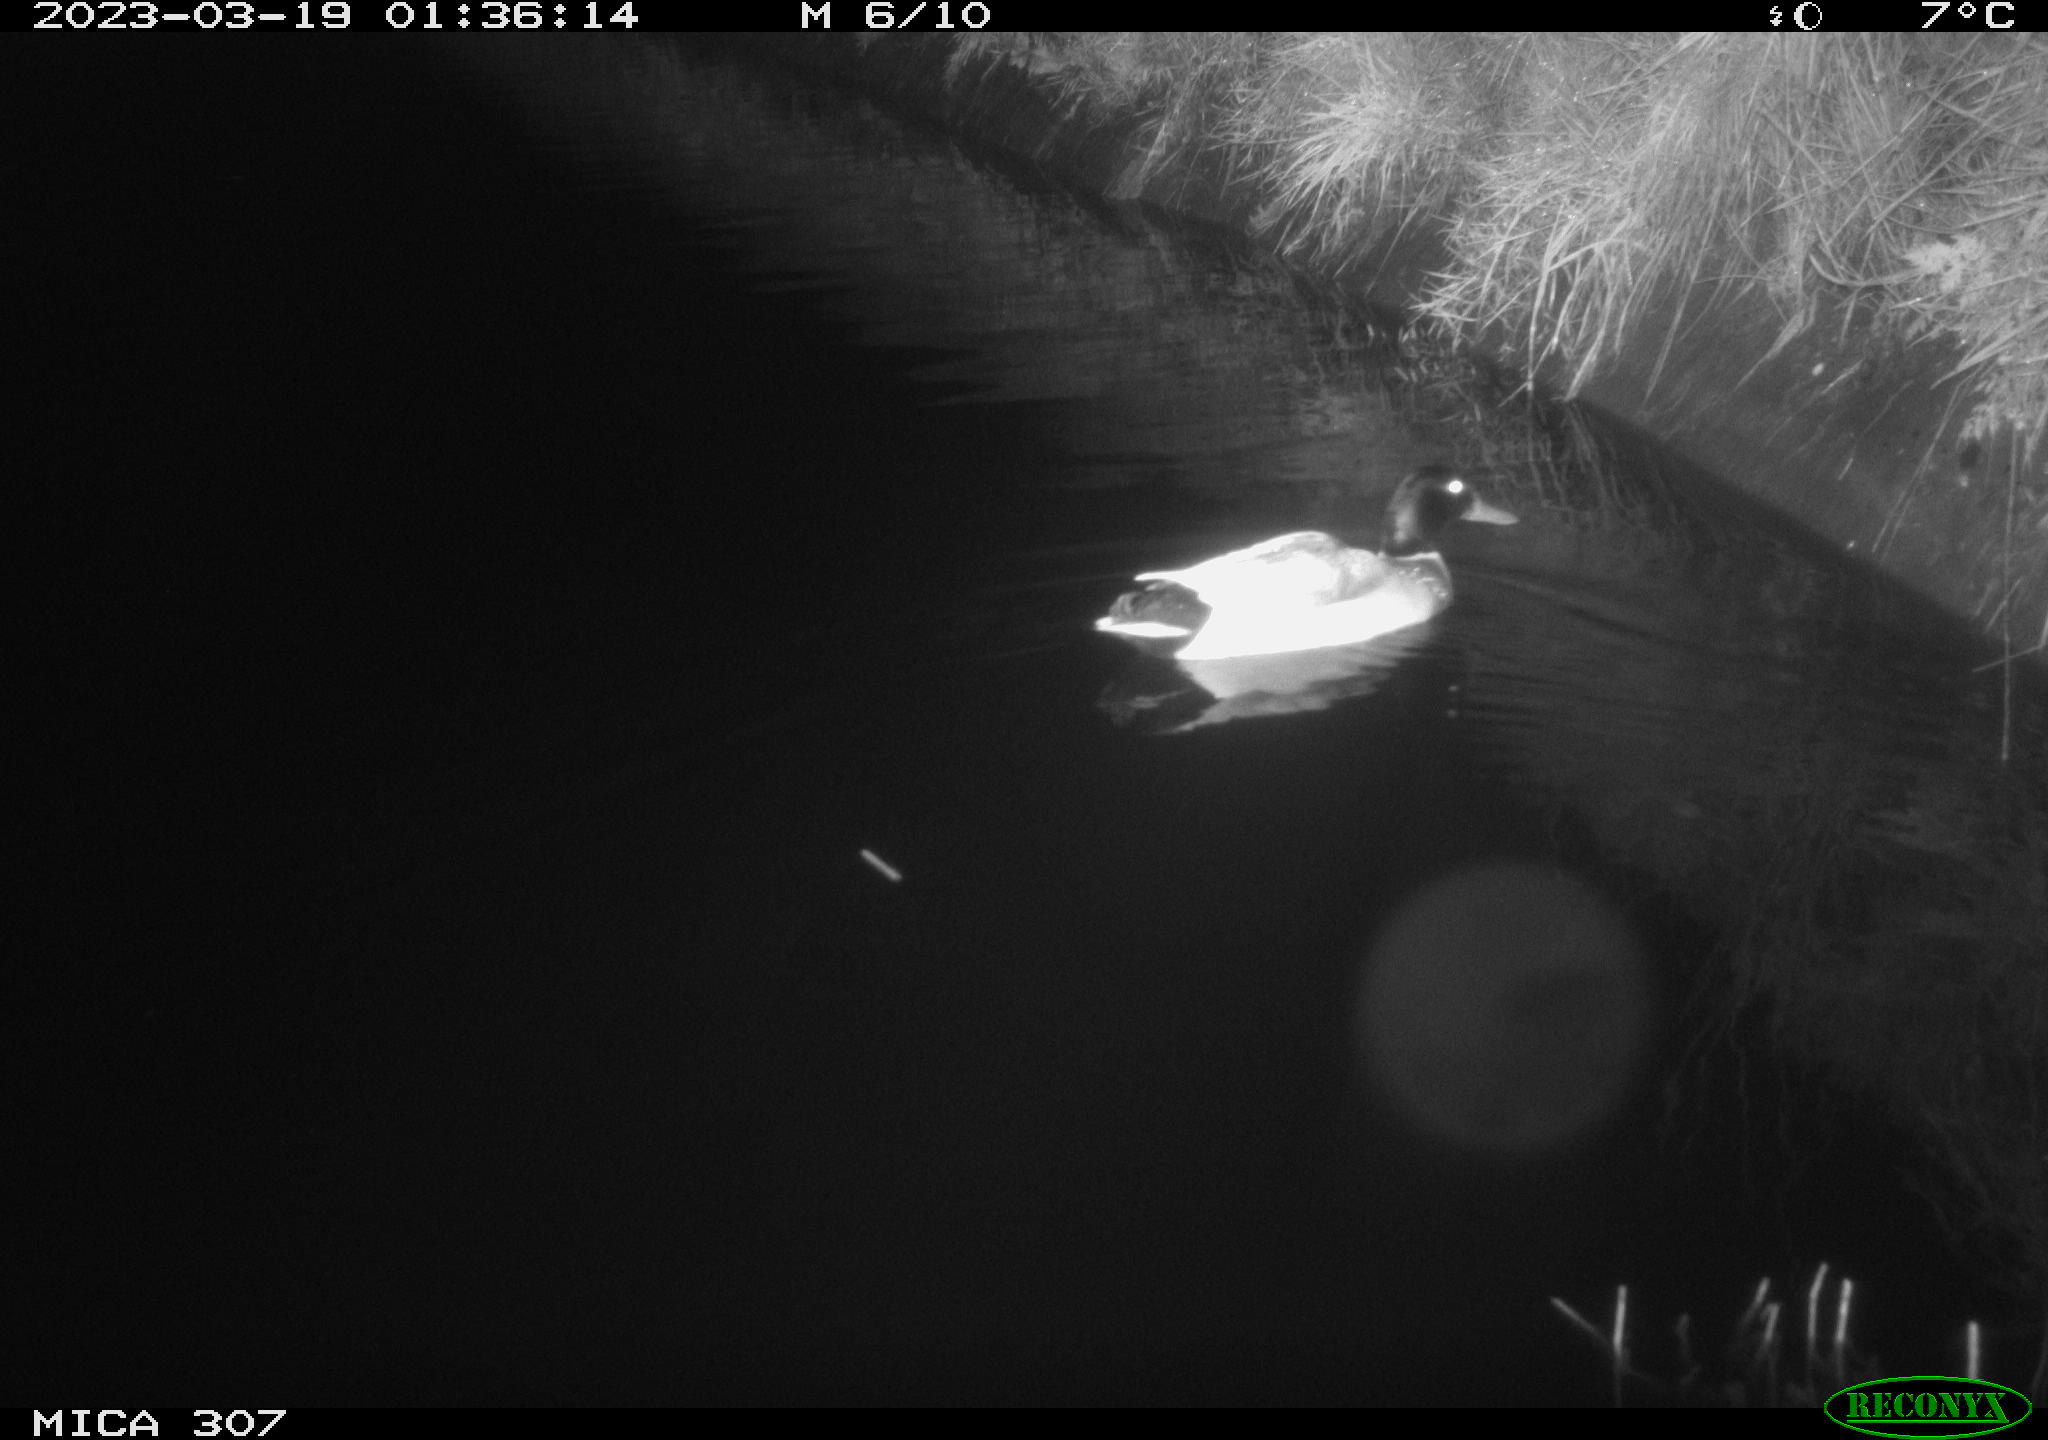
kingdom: Animalia
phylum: Chordata
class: Aves
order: Anseriformes
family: Anatidae
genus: Anas
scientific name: Anas
